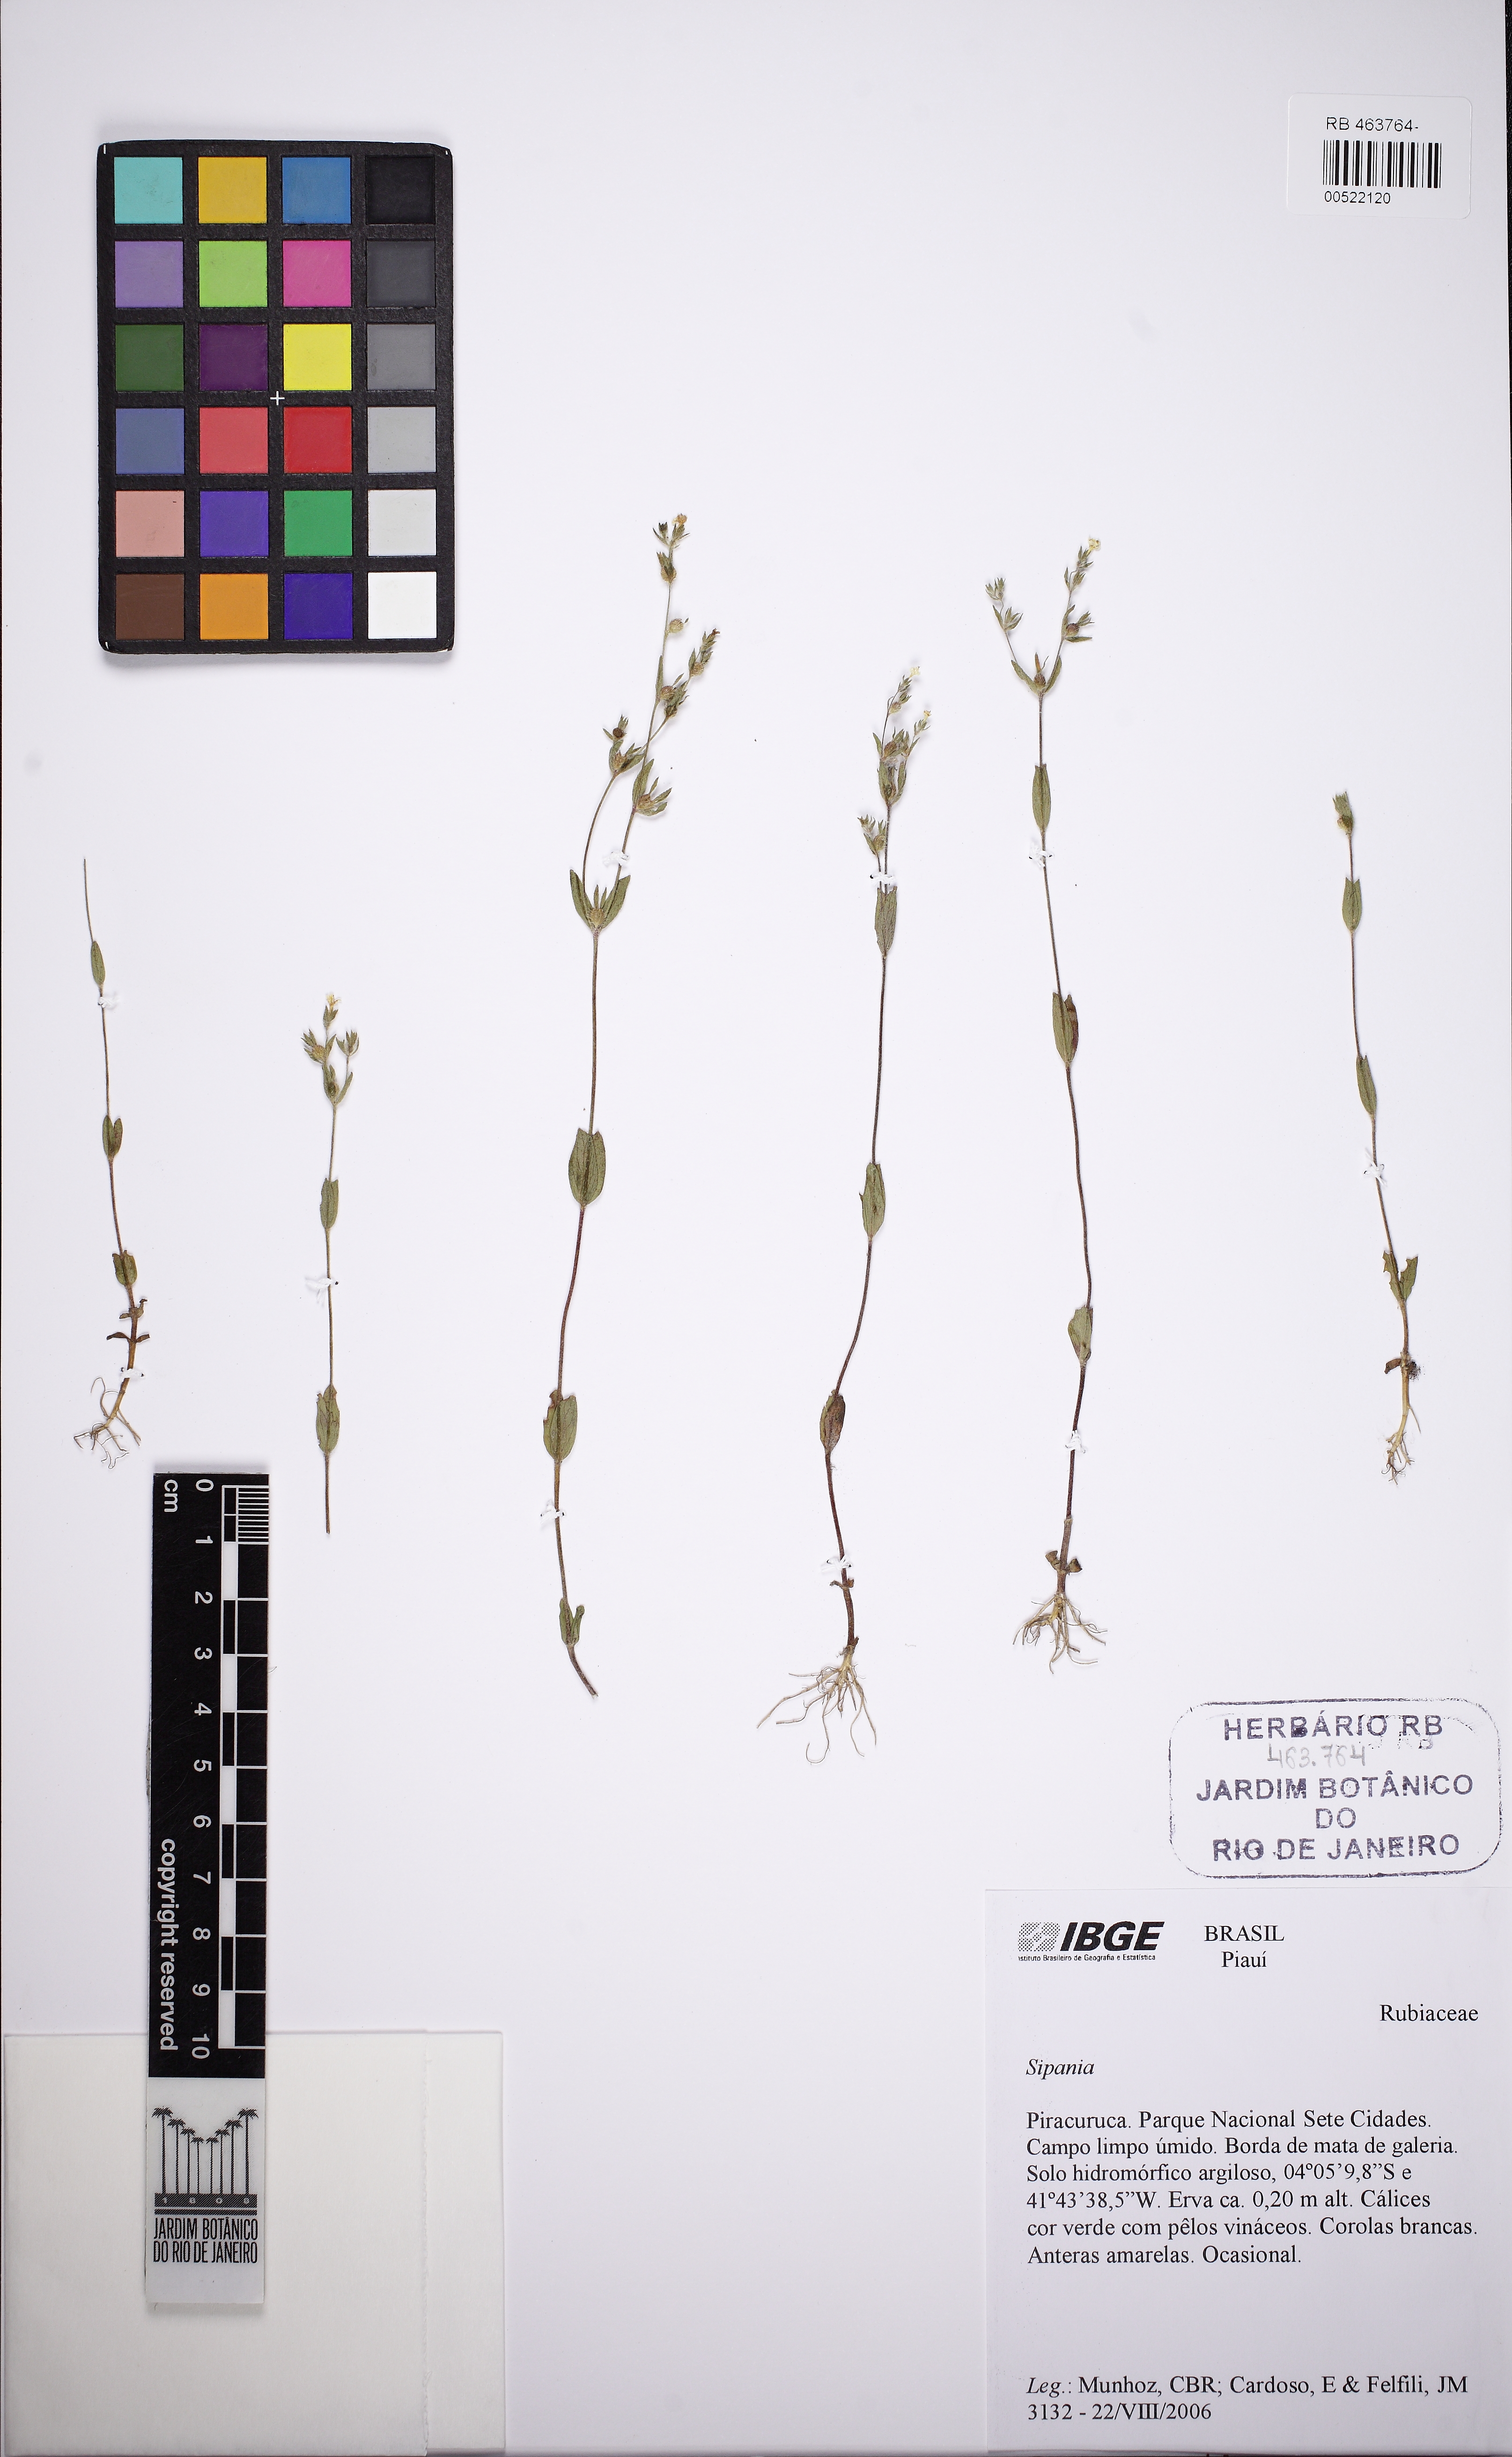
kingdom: Plantae
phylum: Tracheophyta
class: Magnoliopsida
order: Gentianales
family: Rubiaceae
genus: Limnosipanea
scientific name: Limnosipanea palustris
